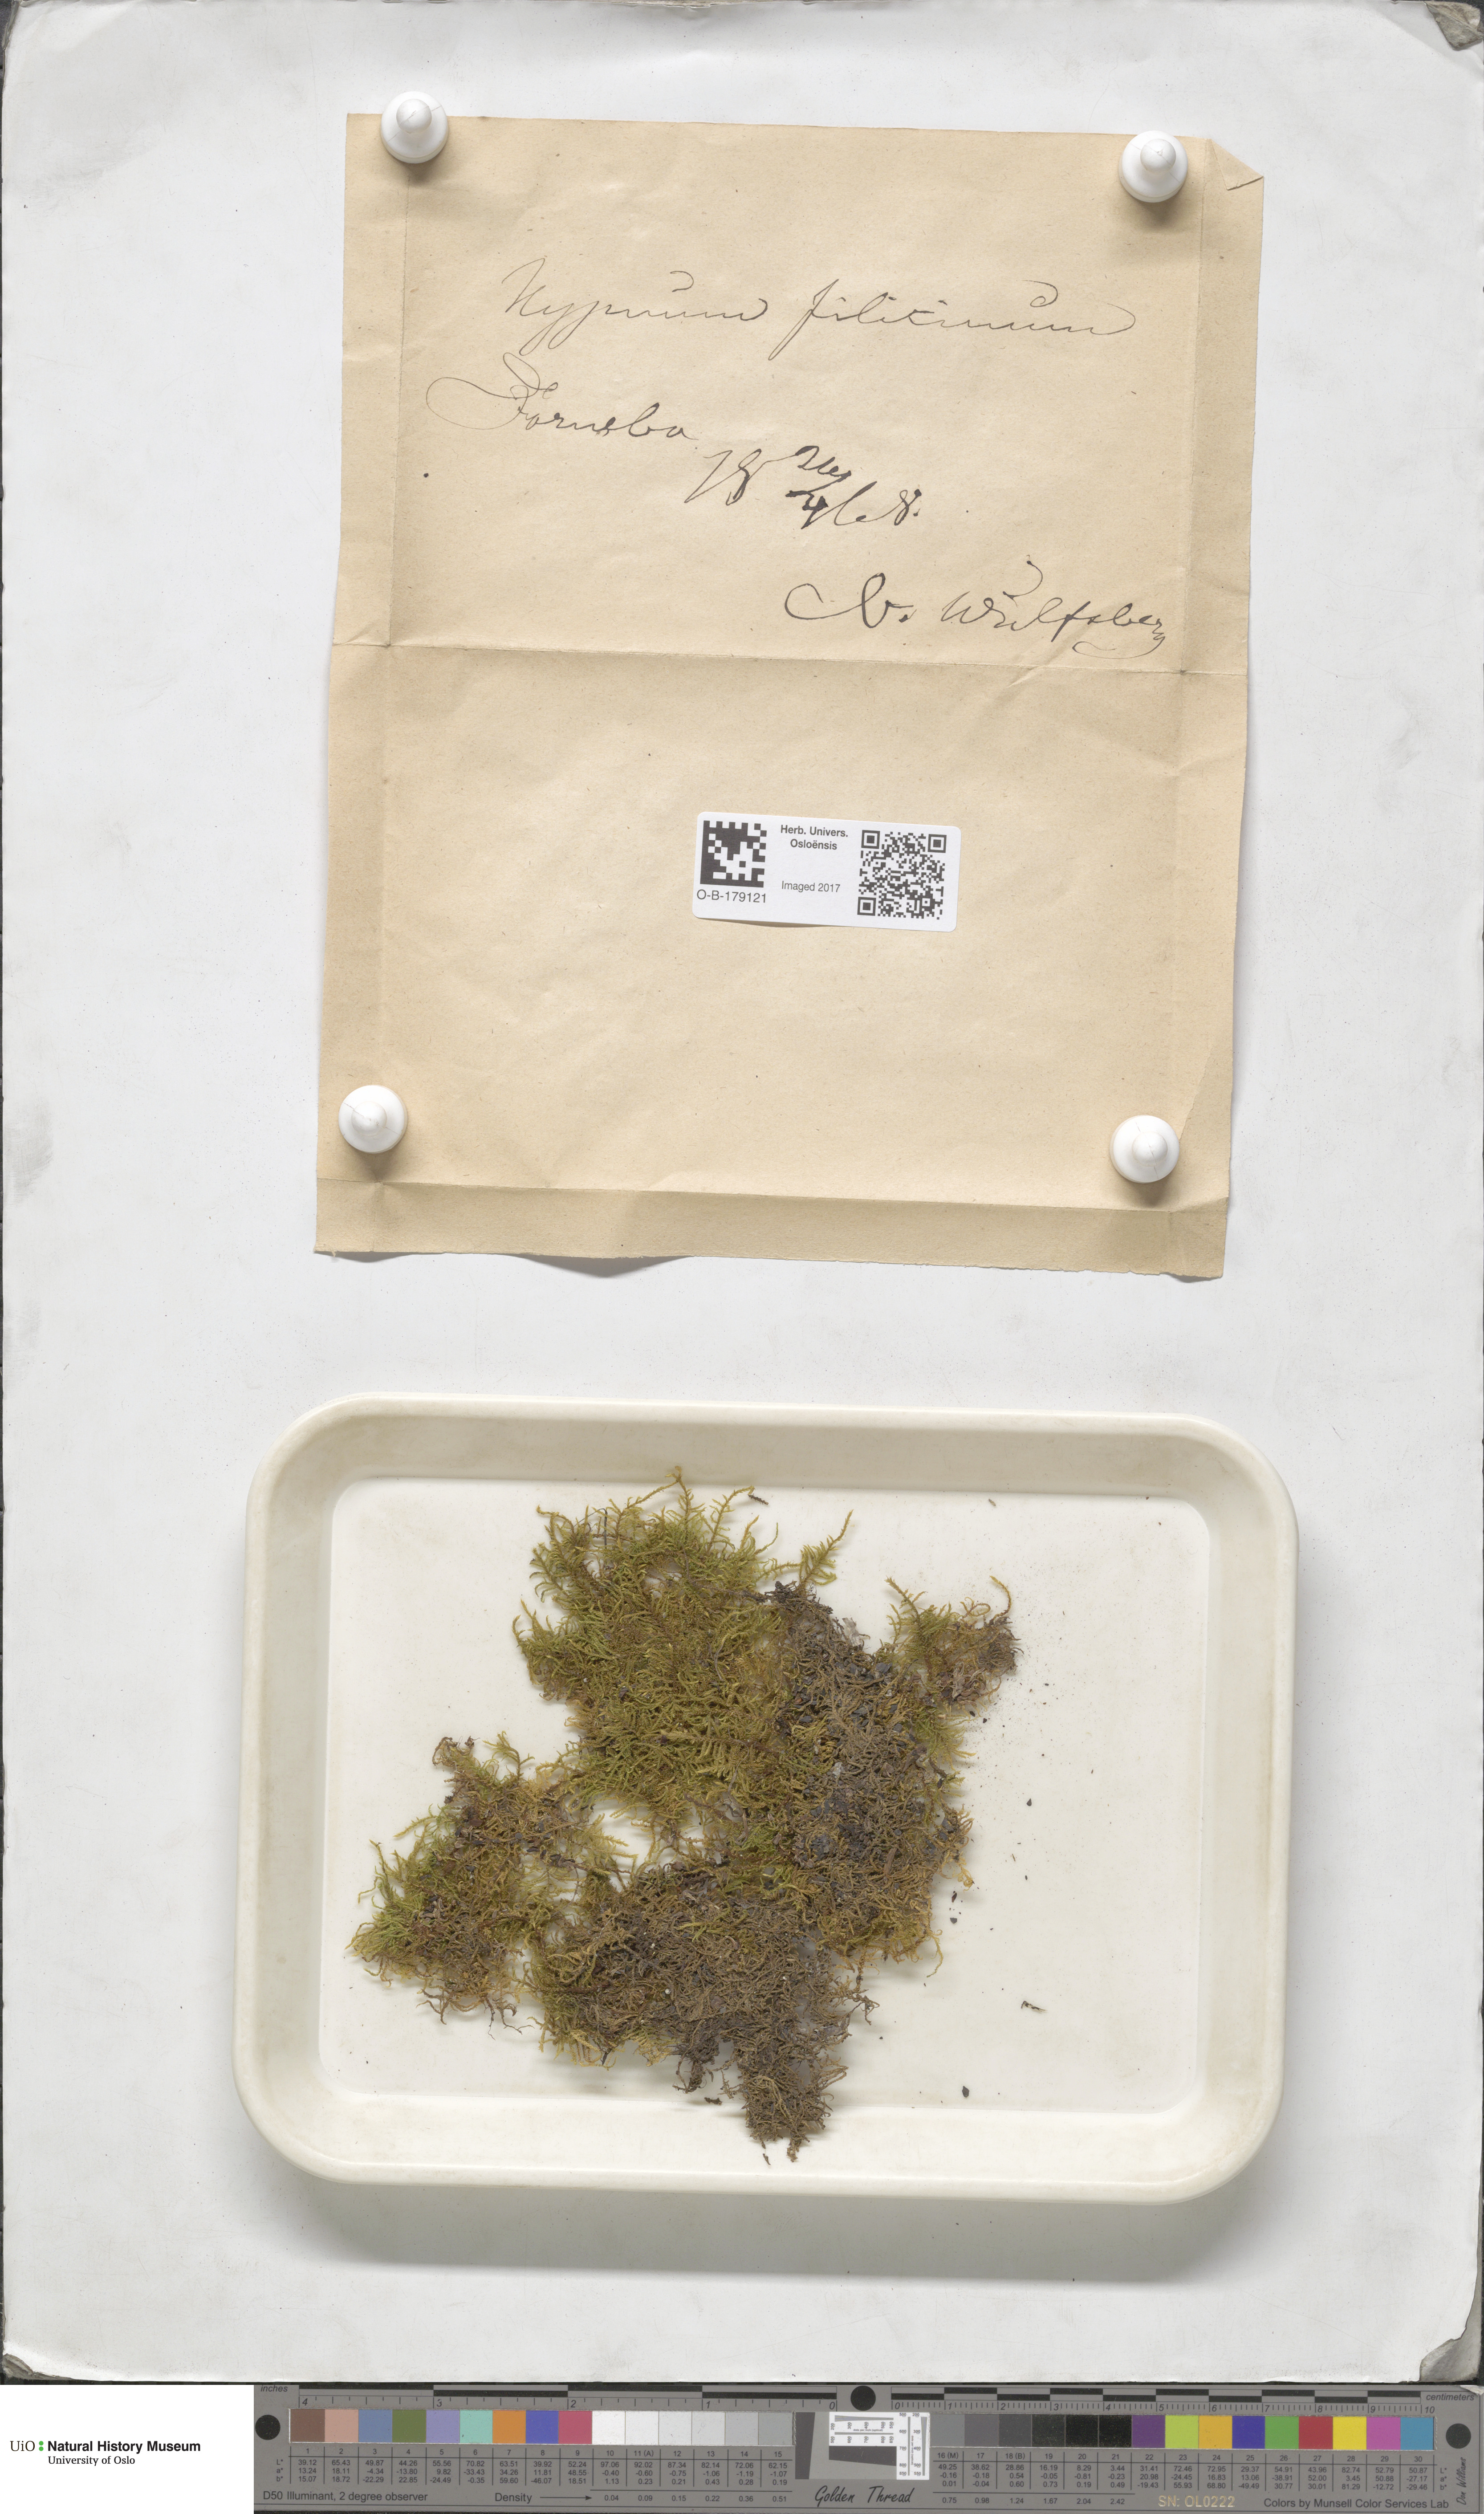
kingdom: Plantae
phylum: Bryophyta
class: Bryopsida
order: Hypnales
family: Amblystegiaceae
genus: Cratoneuron
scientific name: Cratoneuron filicinum
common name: Fern-leaved hook moss
